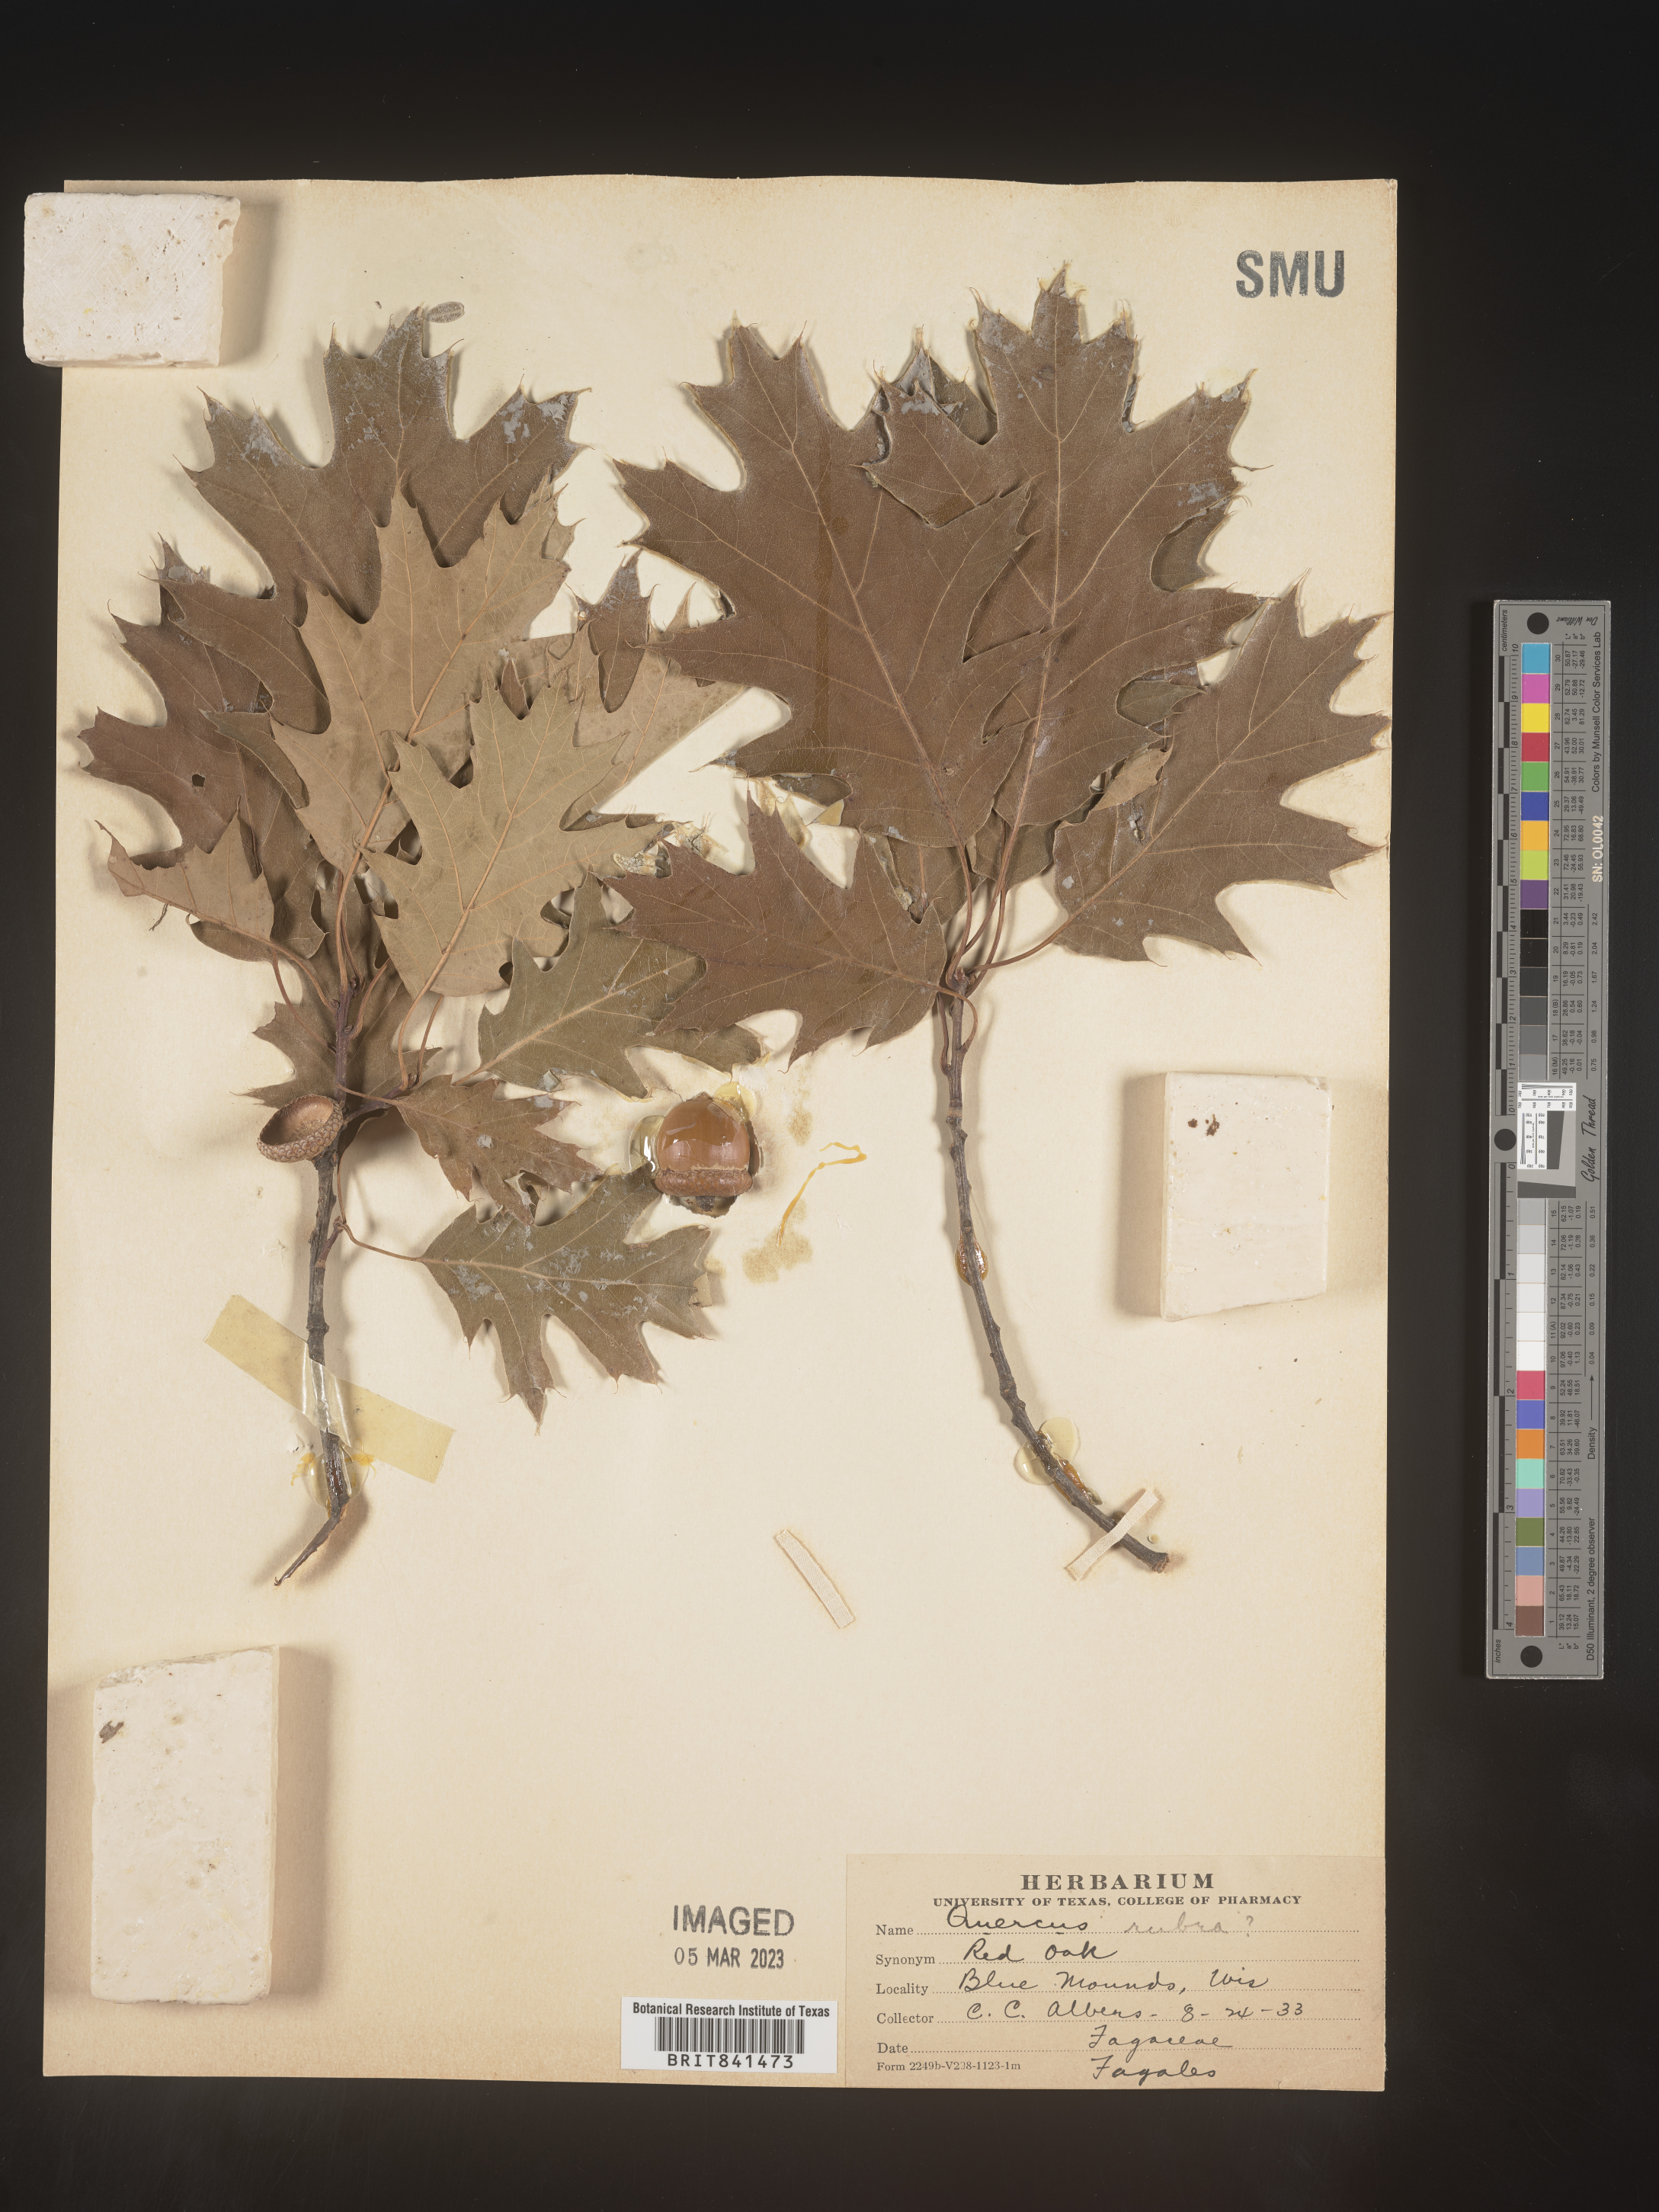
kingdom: Plantae
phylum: Tracheophyta
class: Magnoliopsida
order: Fagales
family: Fagaceae
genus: Quercus
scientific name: Quercus rubra
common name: Red oak
